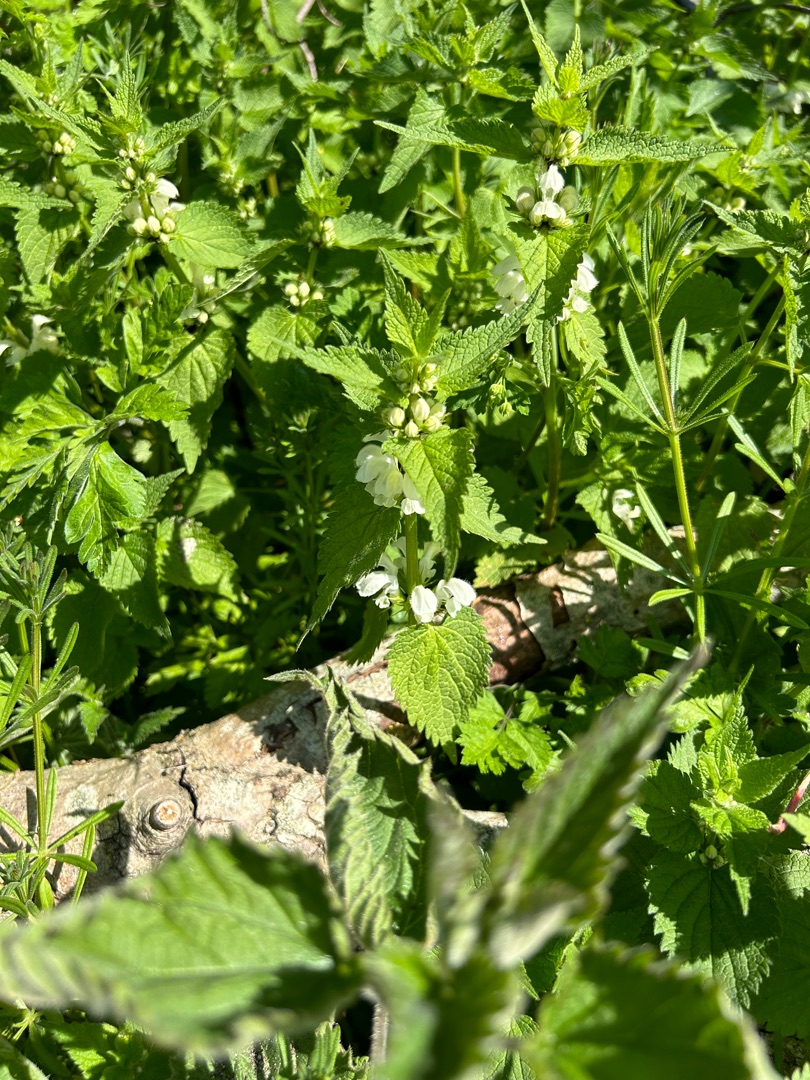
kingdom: Plantae
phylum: Tracheophyta
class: Magnoliopsida
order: Lamiales
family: Lamiaceae
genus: Lamium
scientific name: Lamium album
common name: Døvnælde
